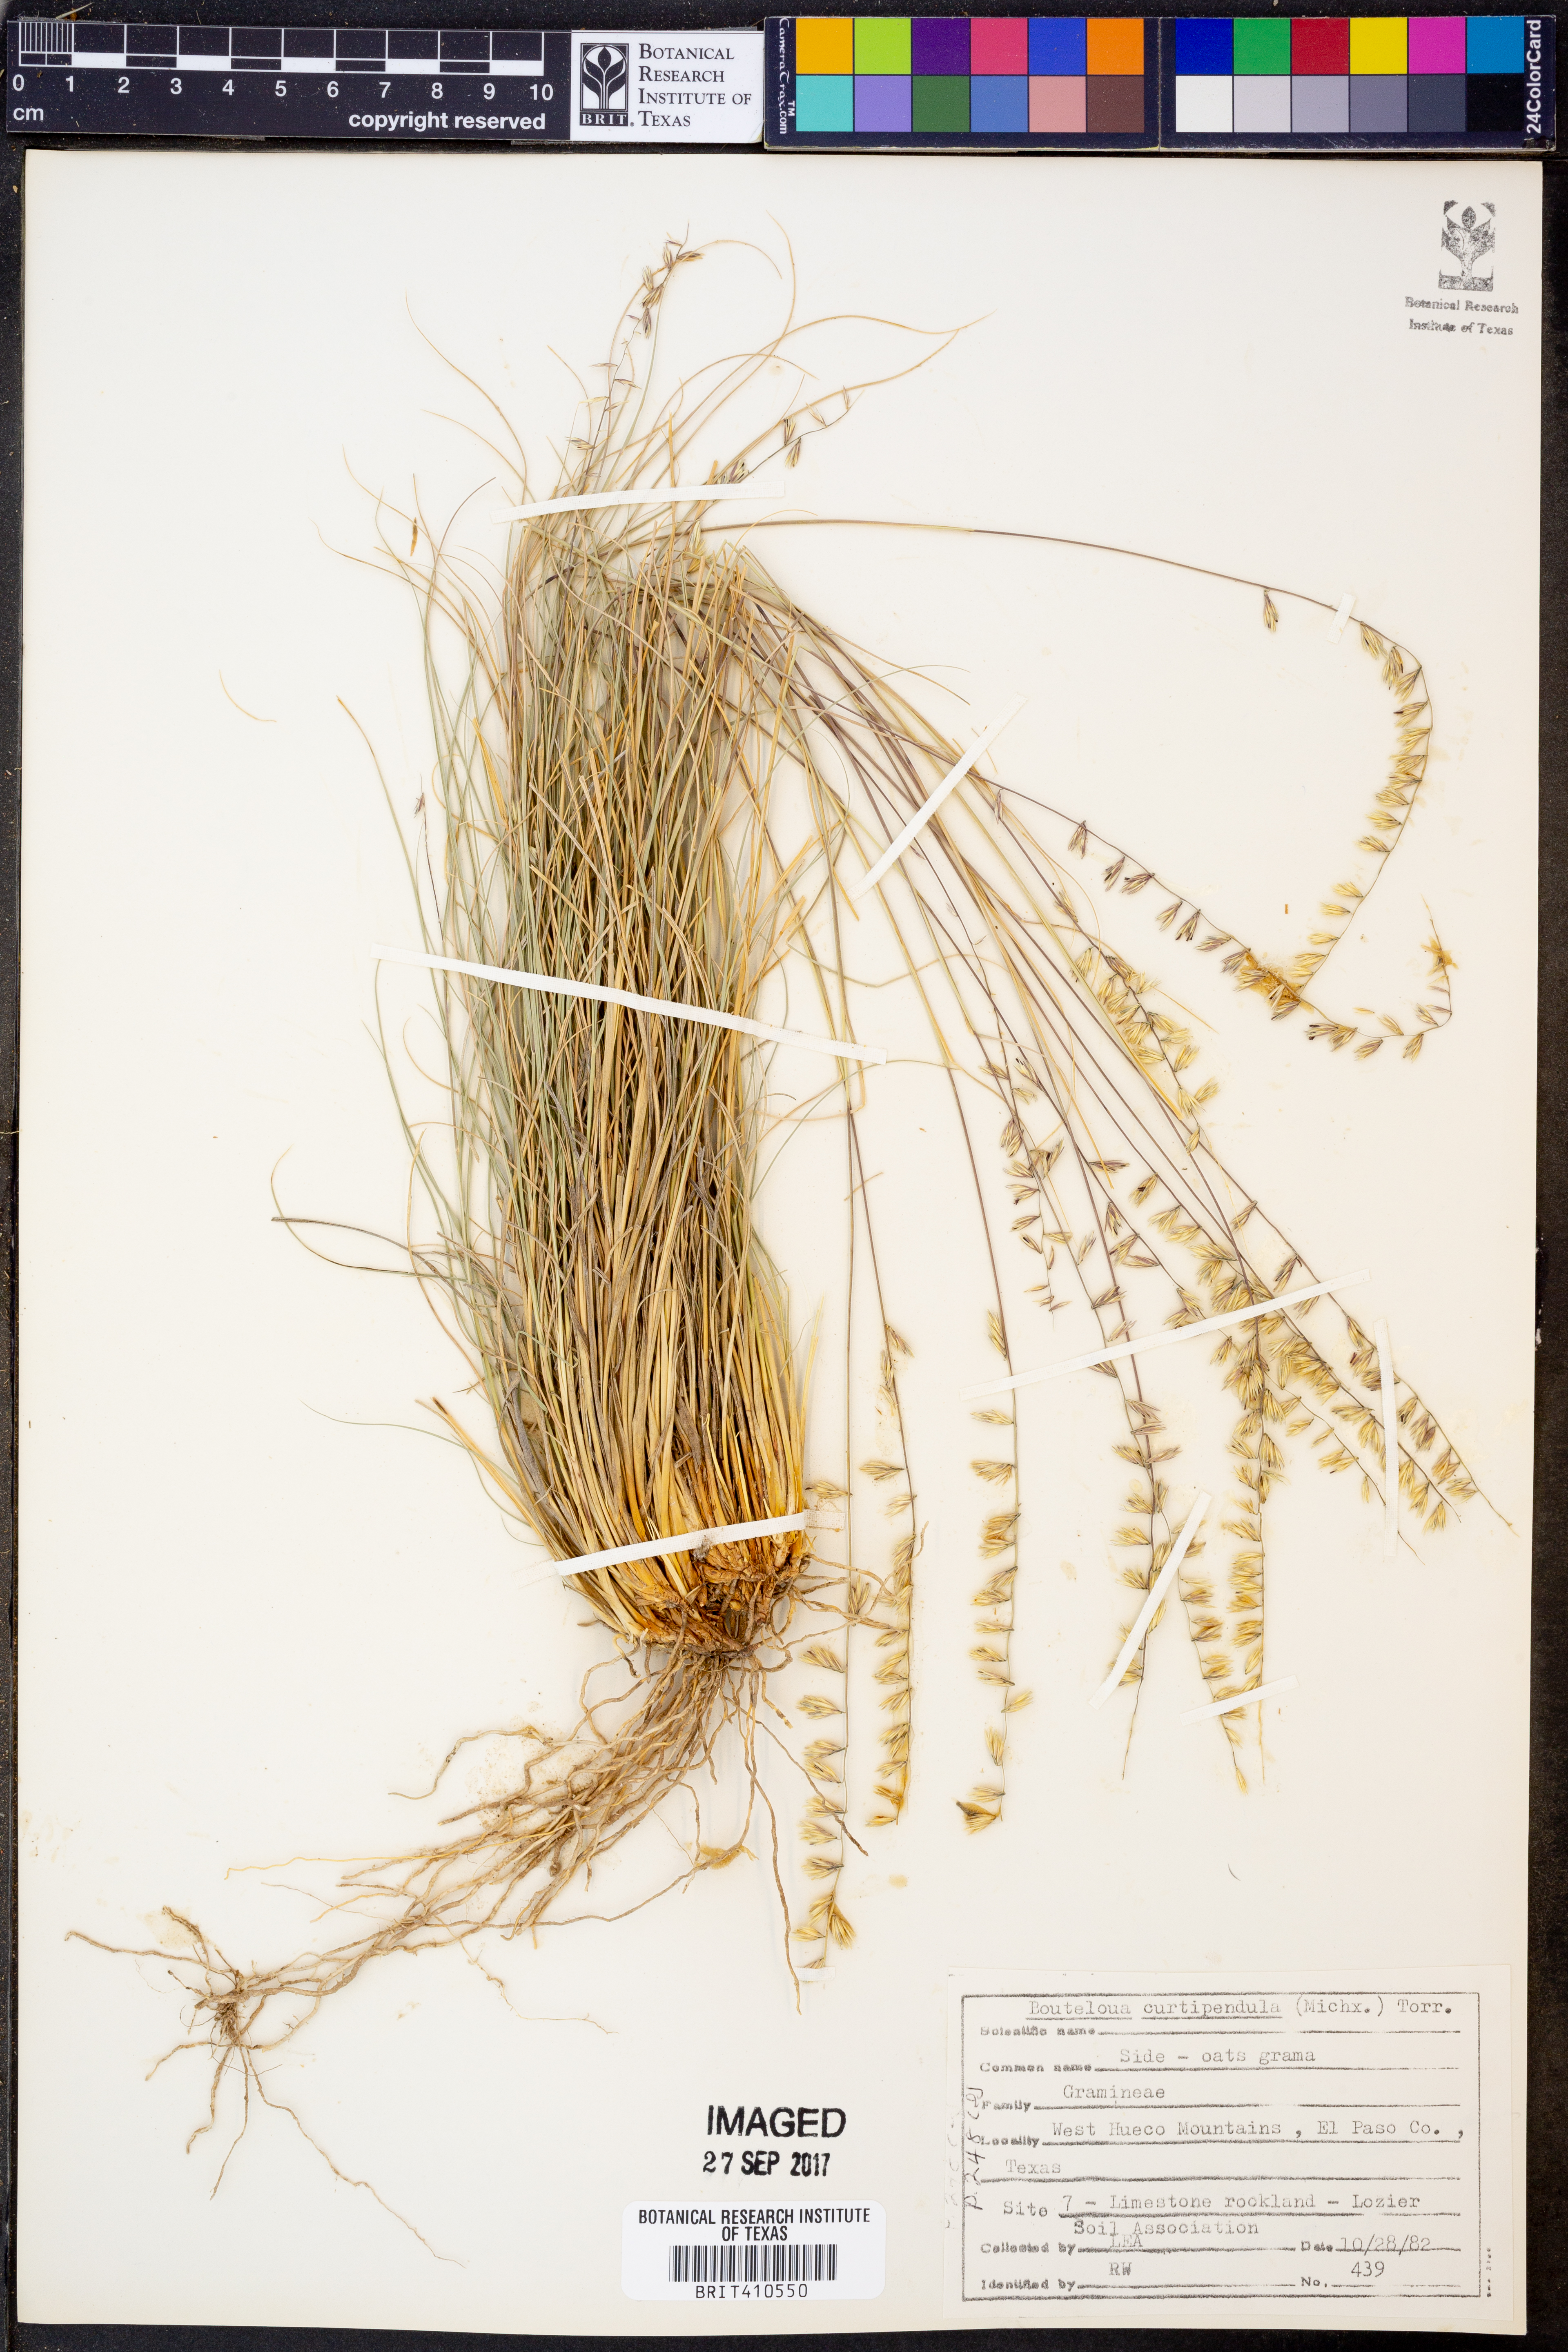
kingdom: Plantae
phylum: Tracheophyta
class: Liliopsida
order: Poales
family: Poaceae
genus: Bouteloua
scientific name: Bouteloua curtipendula
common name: Side-oats grama
